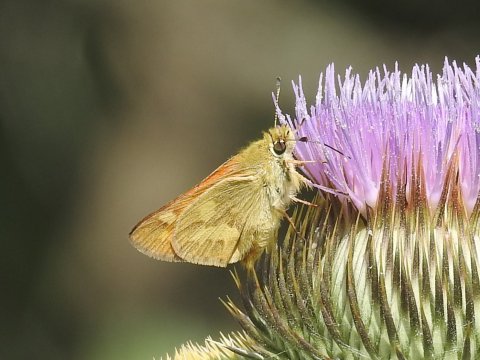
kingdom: Animalia
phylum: Arthropoda
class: Insecta
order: Lepidoptera
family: Hesperiidae
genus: Ochlodes
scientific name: Ochlodes sylvanoides
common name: Woodland Skipper
